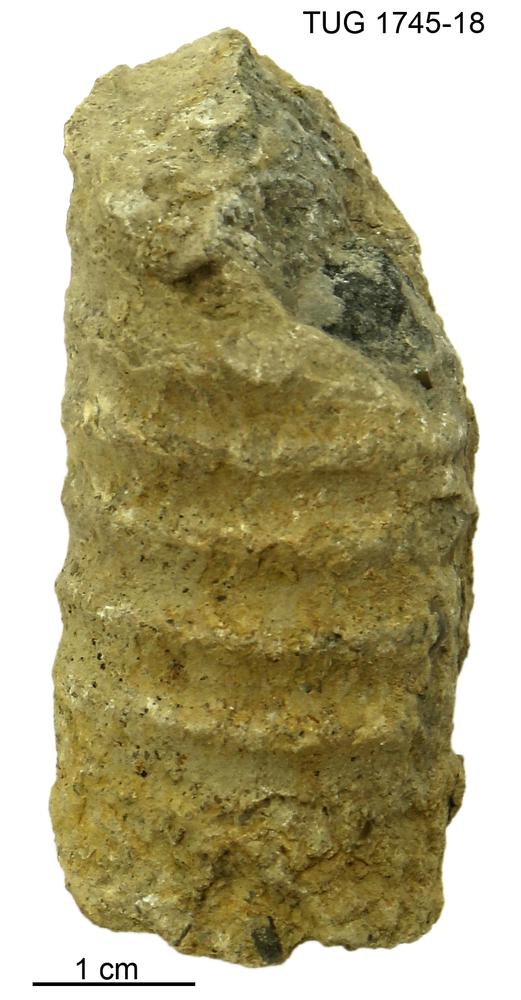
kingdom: Animalia
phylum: Mollusca
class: Cephalopoda
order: Orthocerida
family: Pseudorthoceratidae
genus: Spyroceras
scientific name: Spyroceras
